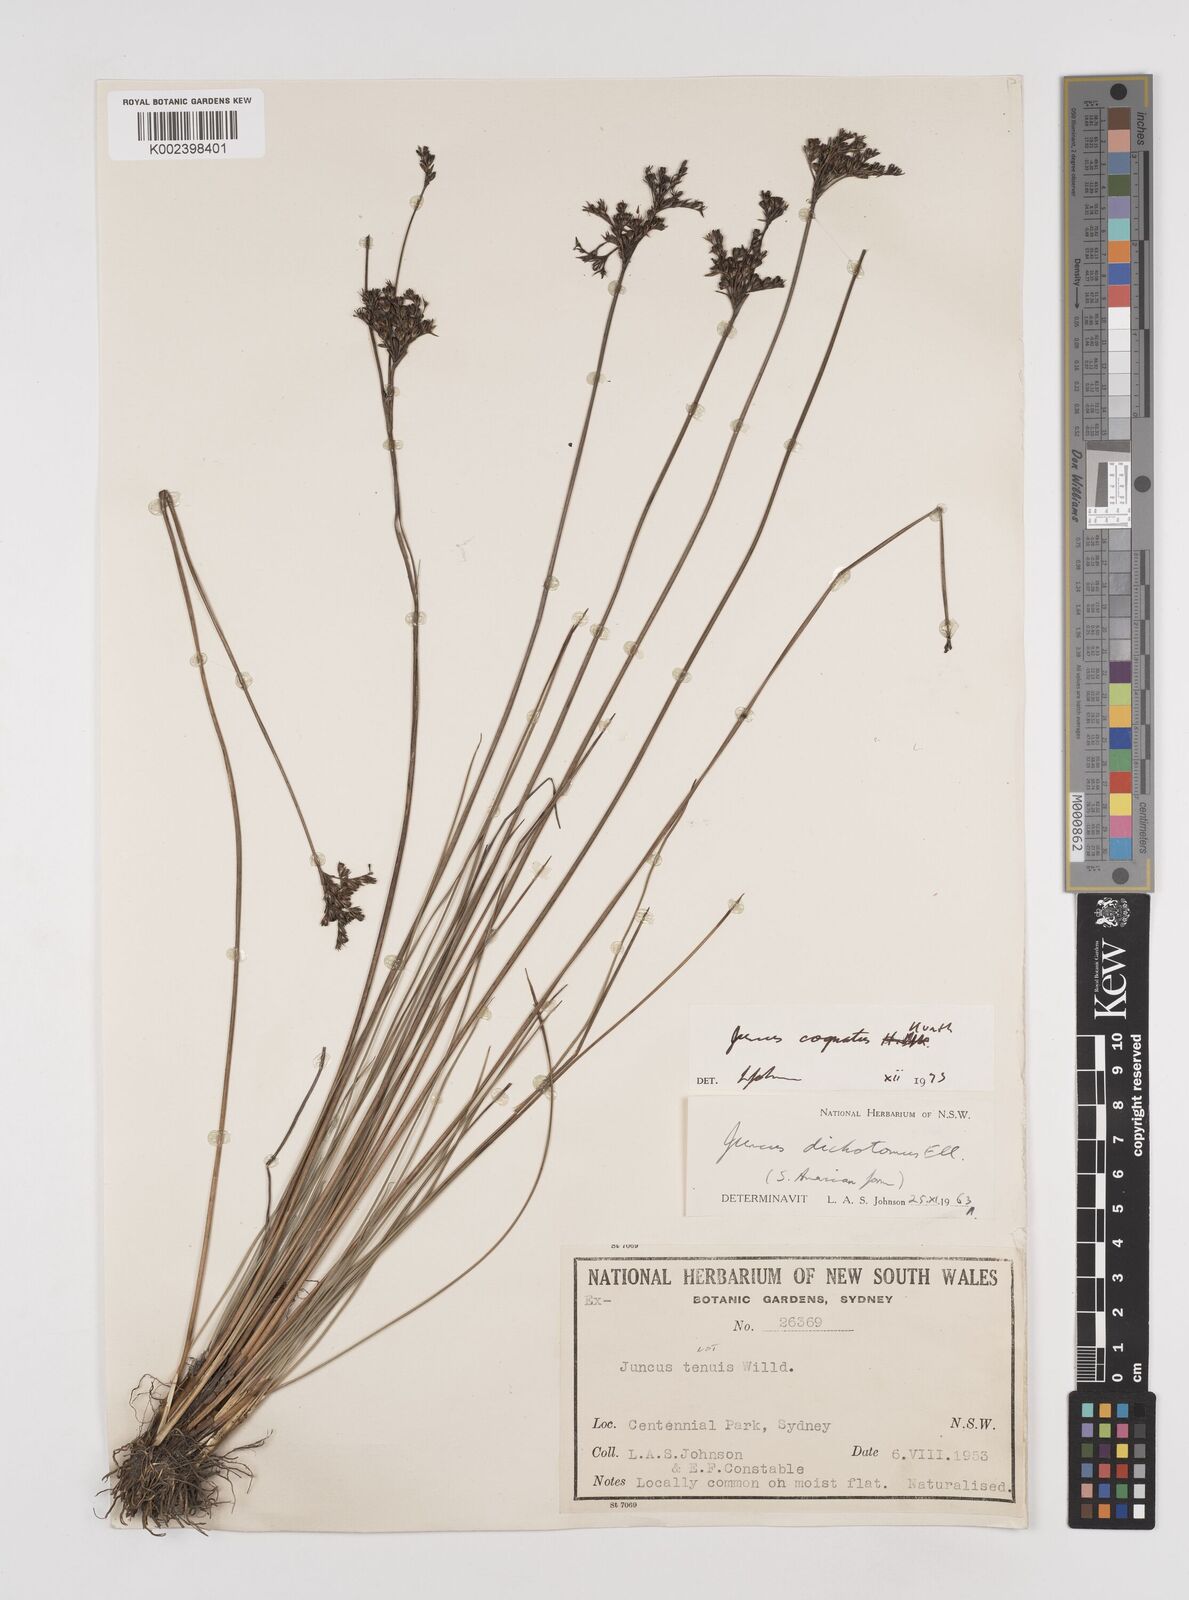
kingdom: Plantae
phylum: Tracheophyta
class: Liliopsida
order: Poales
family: Juncaceae
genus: Juncus
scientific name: Juncus dichotomus
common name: Forked rush
